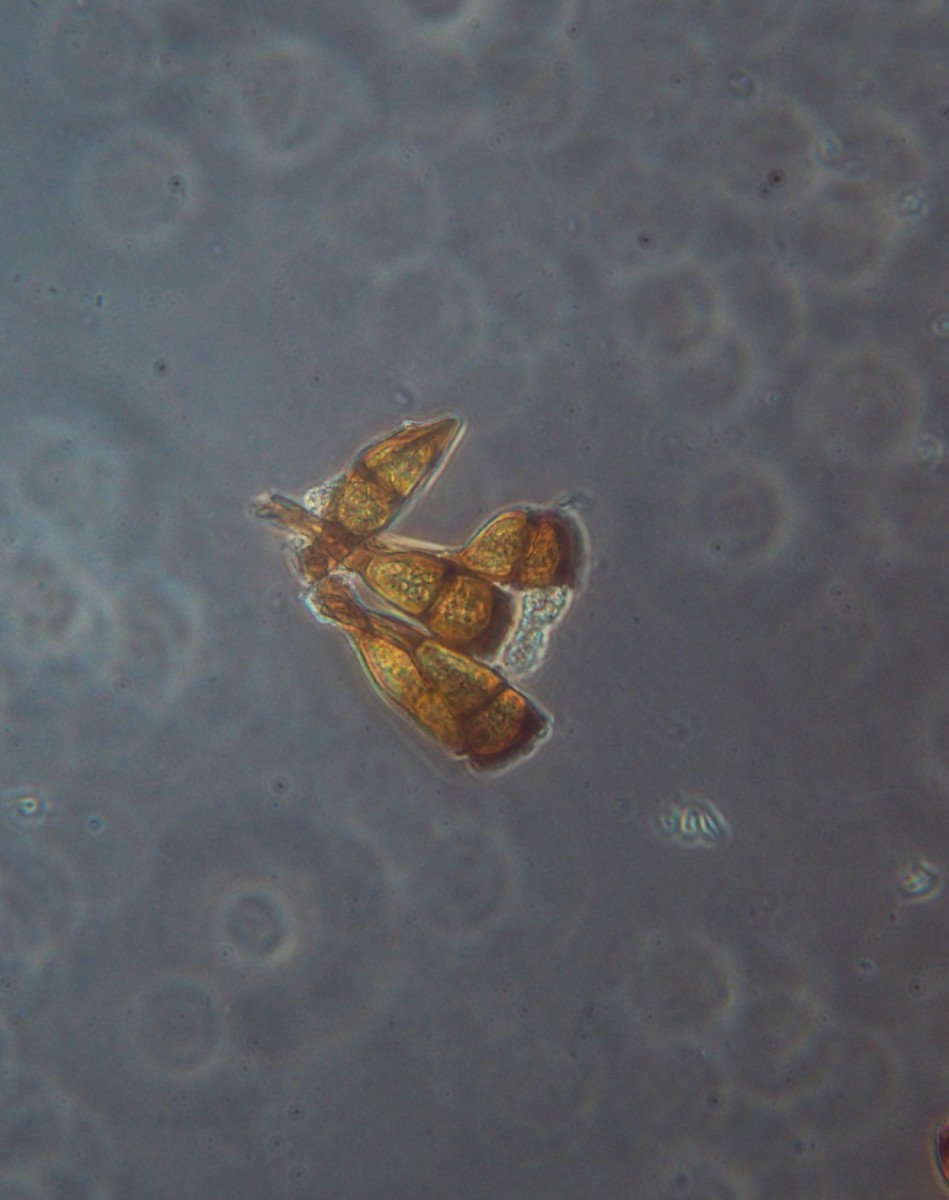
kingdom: Fungi
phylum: Basidiomycota
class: Pucciniomycetes
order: Pucciniales
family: Pucciniaceae
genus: Puccinia
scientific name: Puccinia phragmitis
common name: tagrør-tvecellerust
